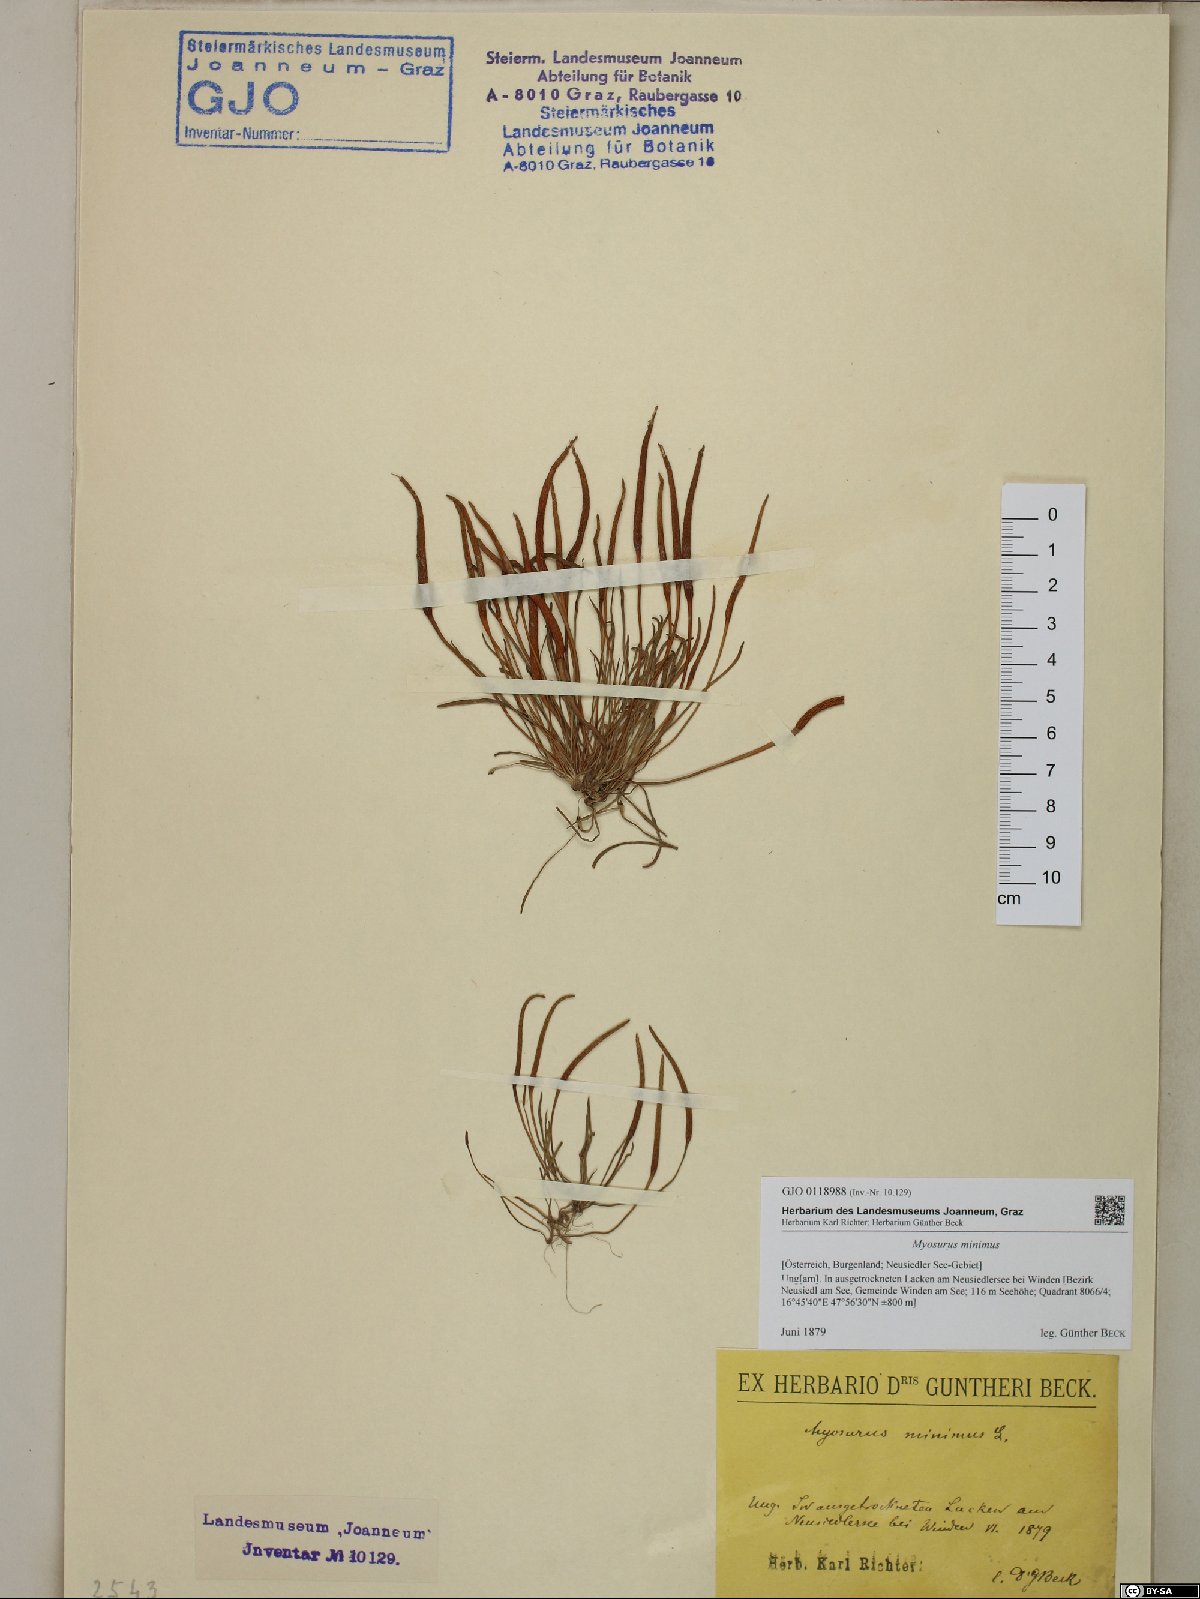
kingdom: Plantae
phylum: Tracheophyta
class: Magnoliopsida
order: Ranunculales
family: Ranunculaceae
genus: Myosurus
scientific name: Myosurus minimus
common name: Mousetail
